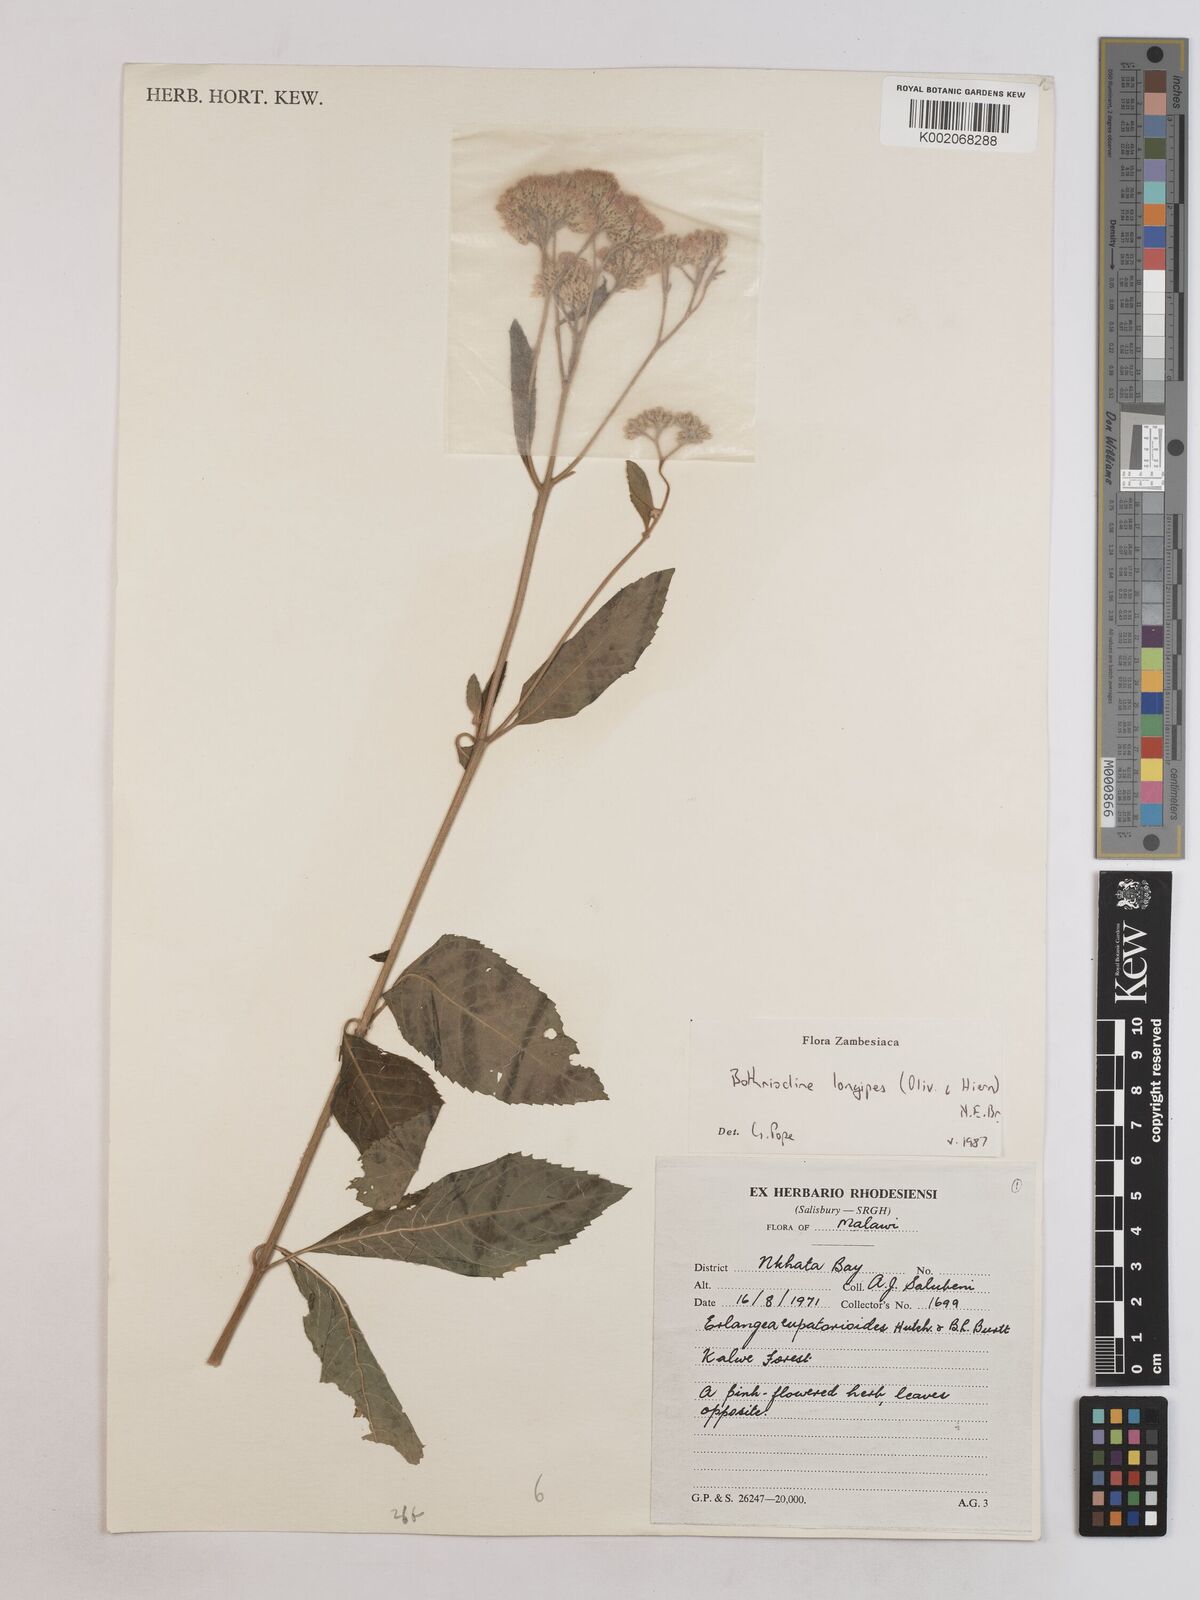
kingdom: Plantae
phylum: Tracheophyta
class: Magnoliopsida
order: Asterales
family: Asteraceae
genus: Bothriocline
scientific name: Bothriocline longipes
